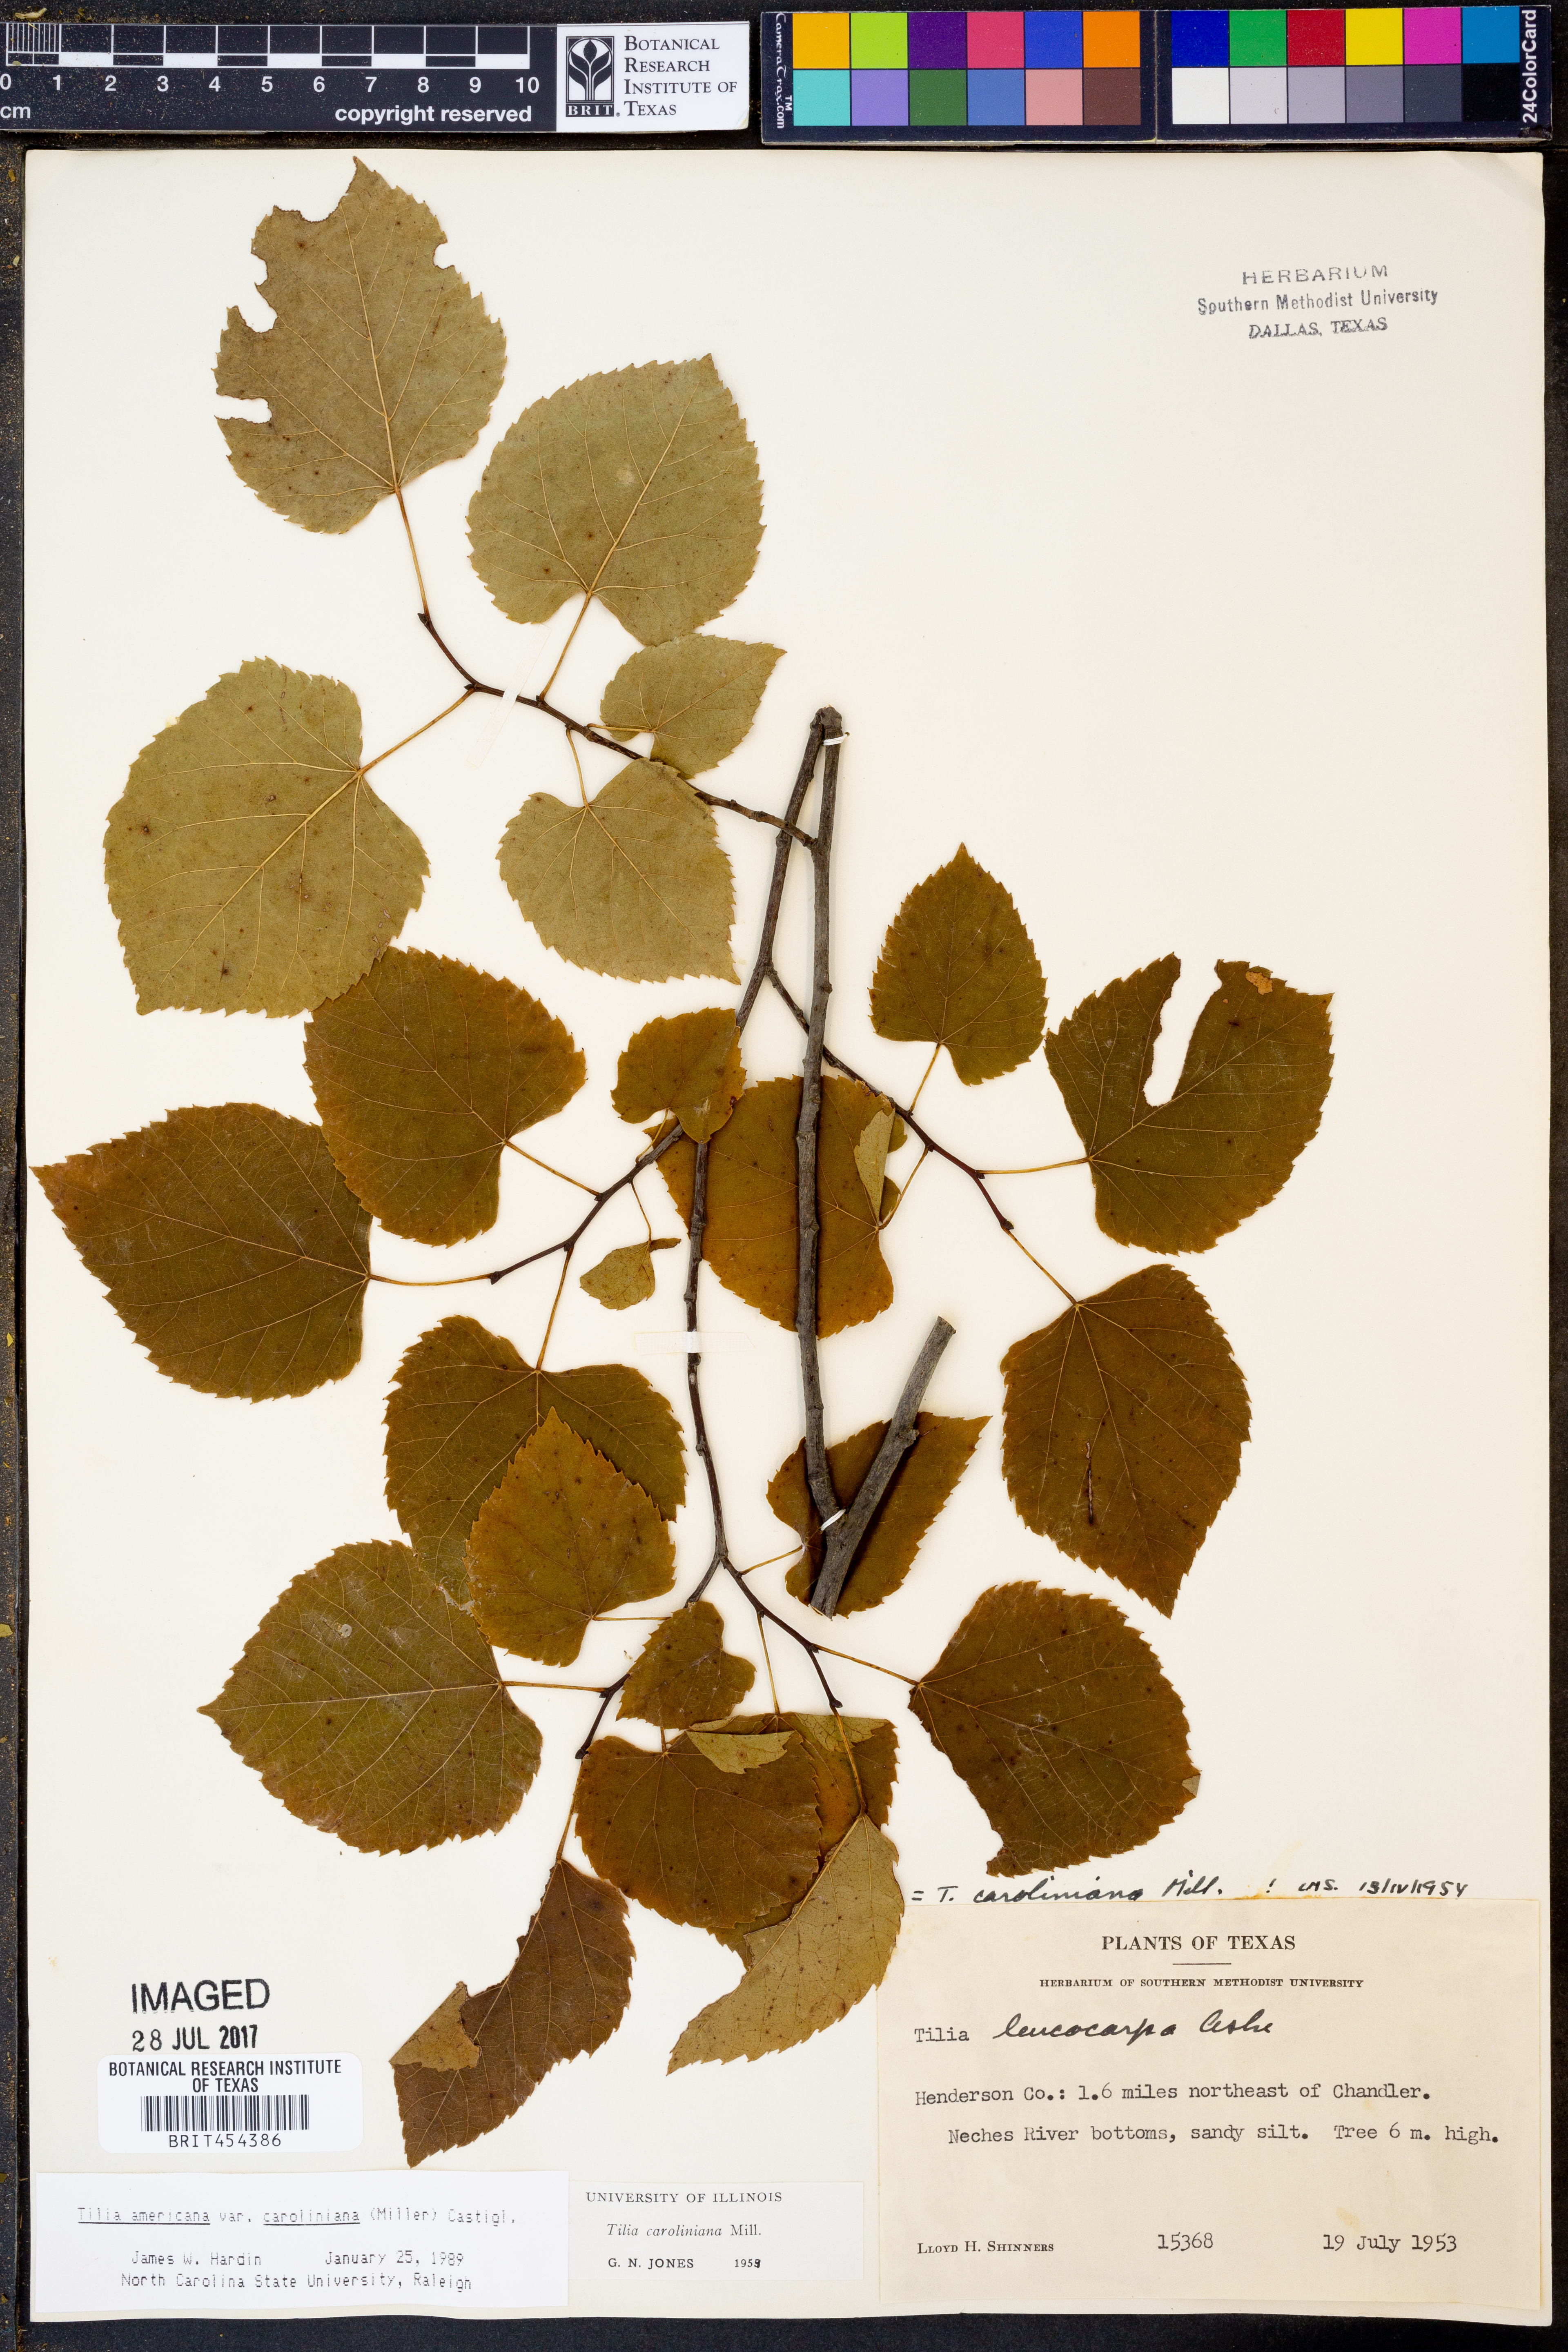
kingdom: Plantae
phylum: Tracheophyta
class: Magnoliopsida
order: Malvales
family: Malvaceae
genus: Tilia
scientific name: Tilia americana
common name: Basswood
